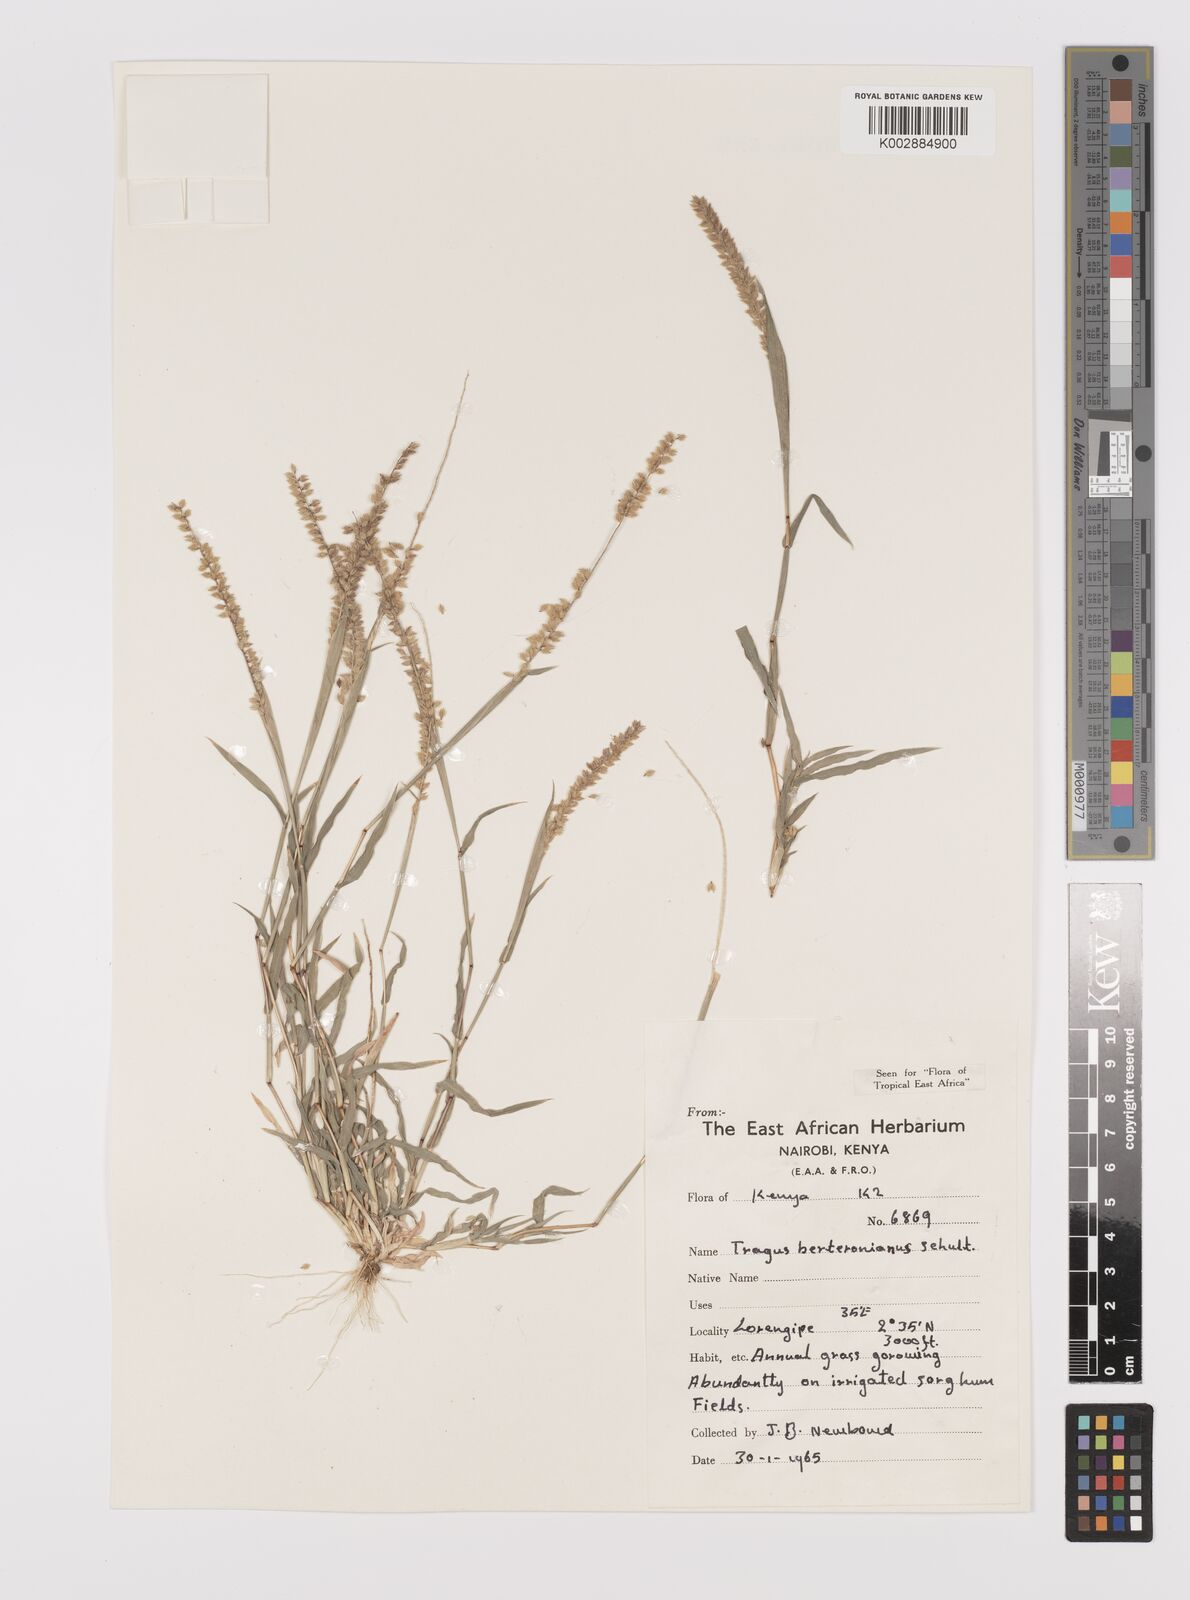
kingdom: Plantae
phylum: Tracheophyta
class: Liliopsida
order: Poales
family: Poaceae
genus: Tragus
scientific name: Tragus berteronianus
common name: African bur-grass
